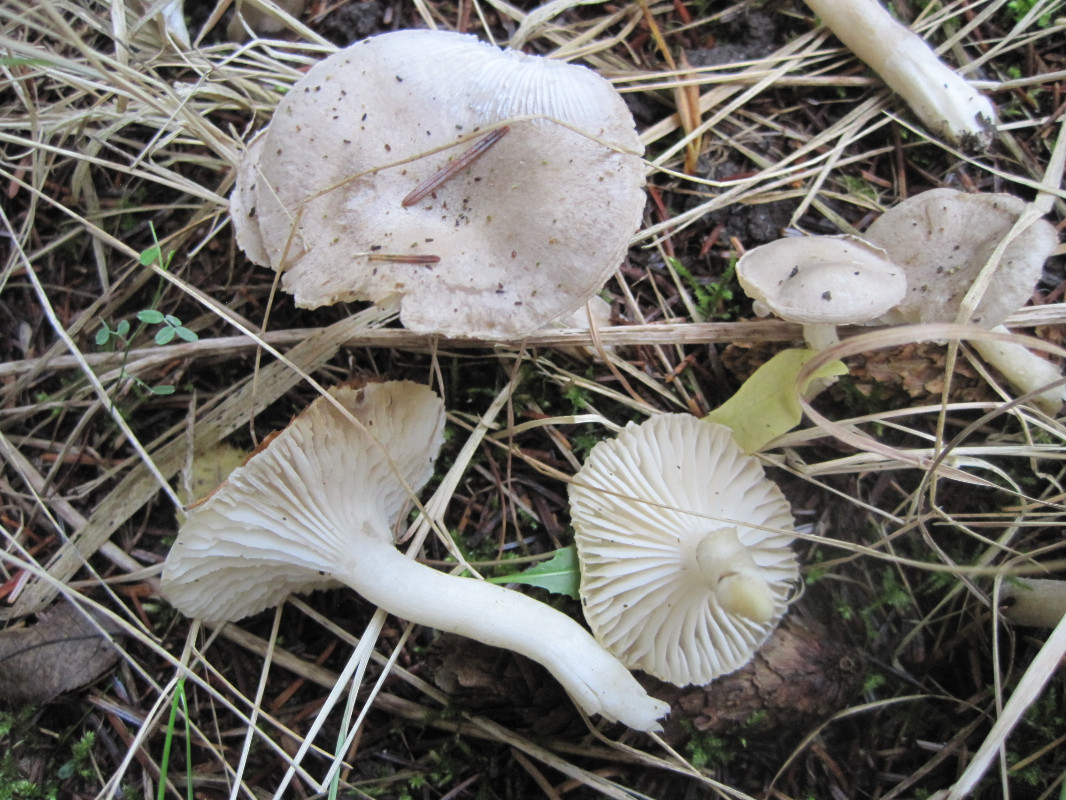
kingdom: Fungi
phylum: Basidiomycota
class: Agaricomycetes
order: Agaricales
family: Hygrophoraceae
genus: Hygrophorus
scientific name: Hygrophorus agathosmus
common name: vellugtende sneglehat
